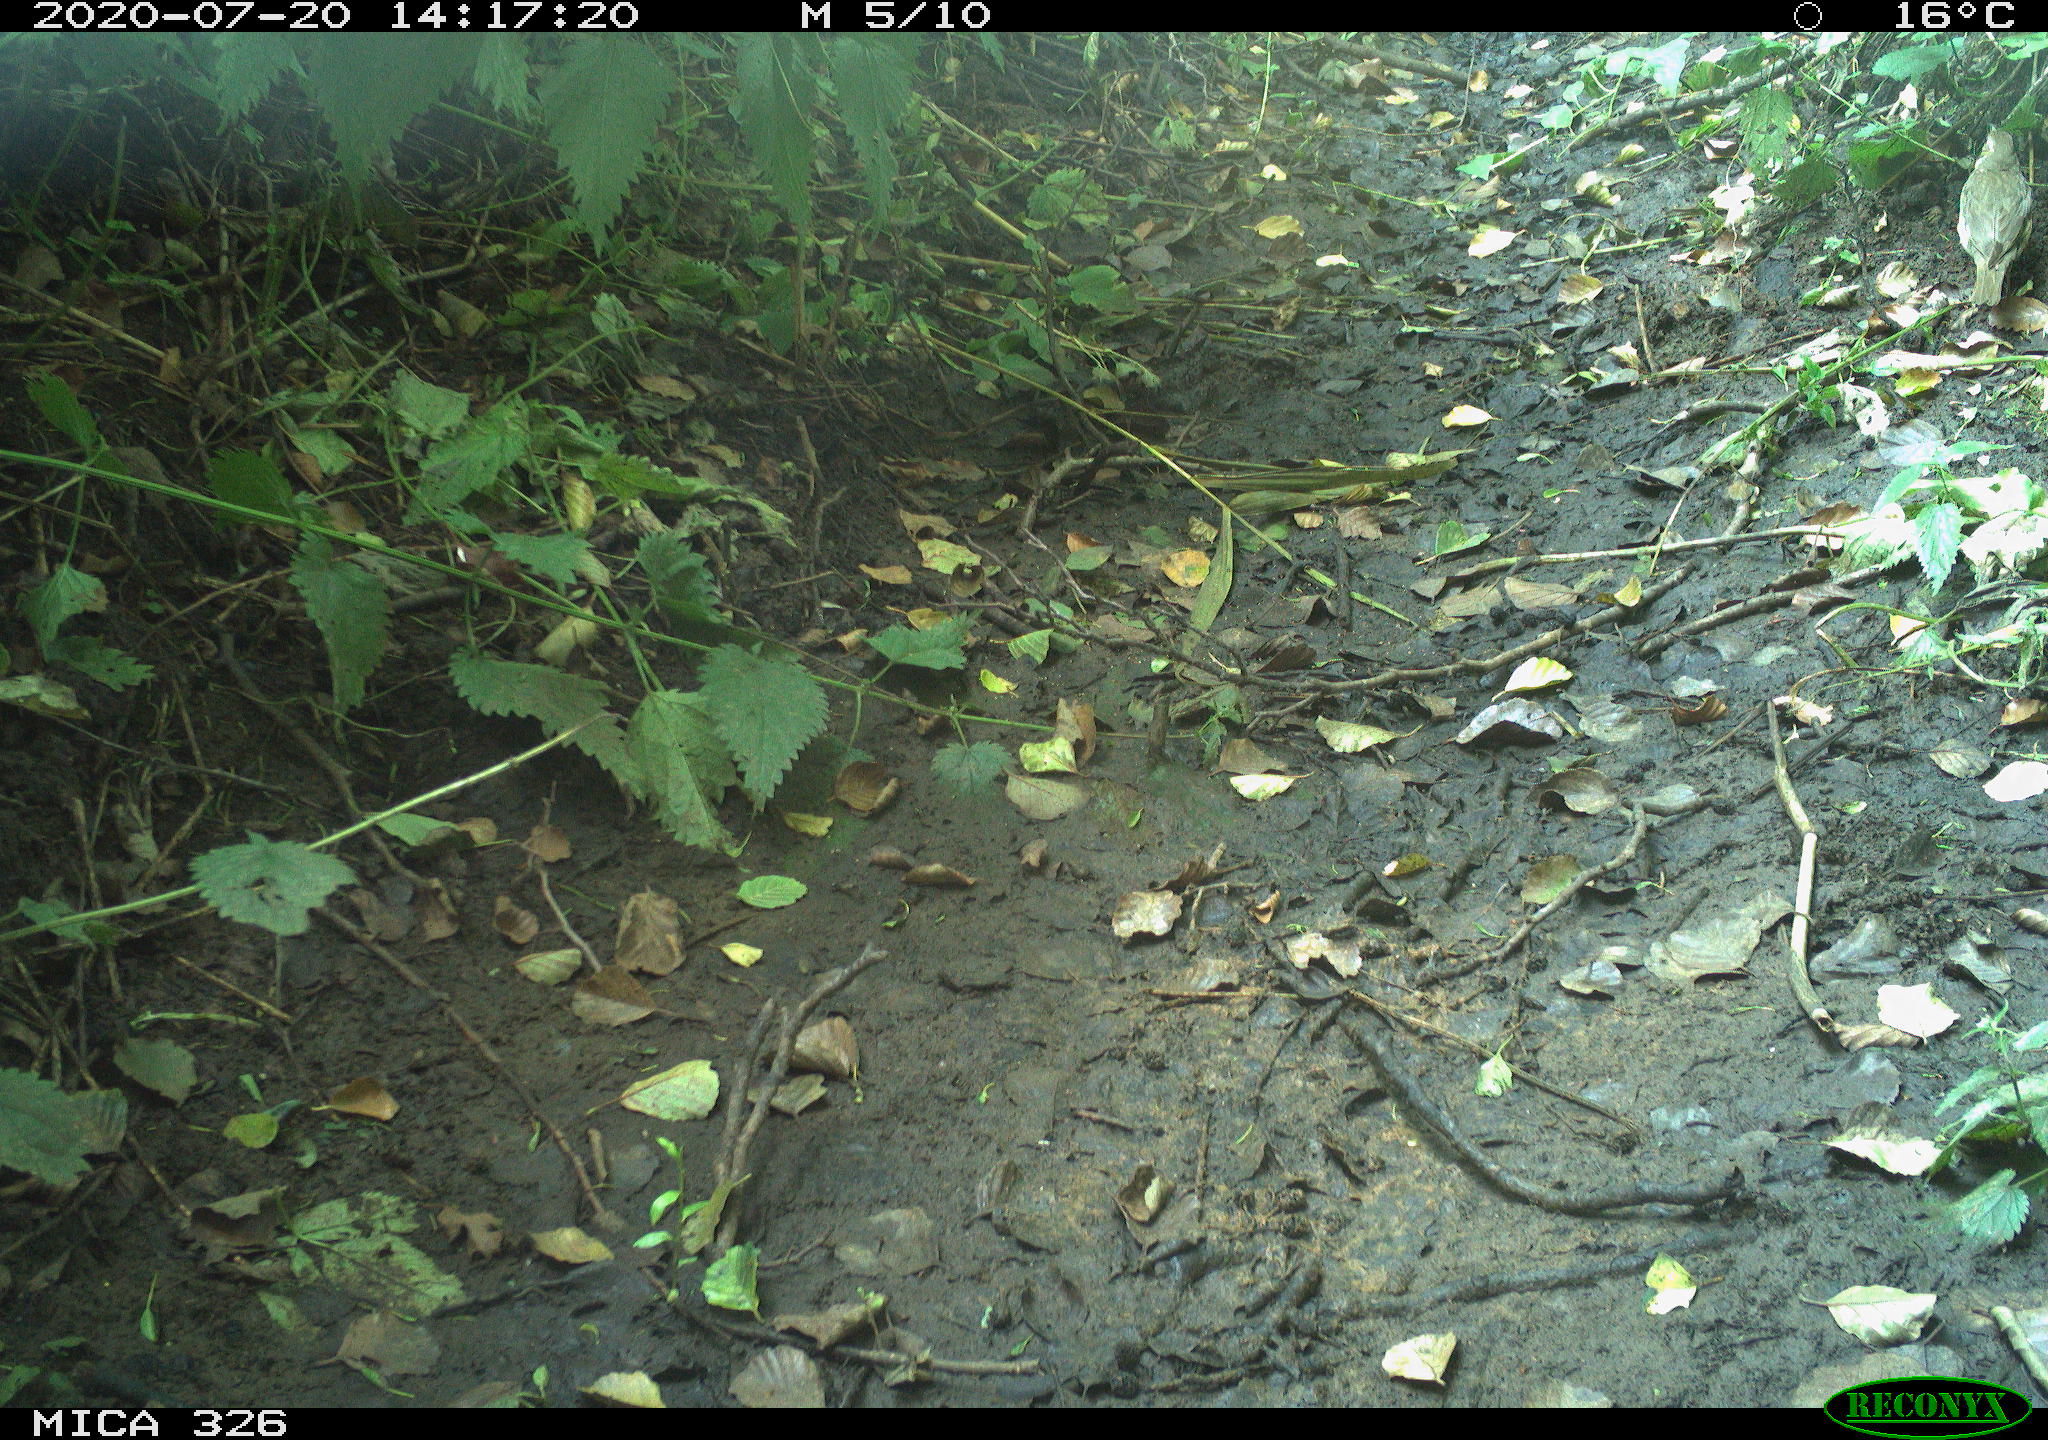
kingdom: Animalia
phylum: Chordata
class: Aves
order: Passeriformes
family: Turdidae
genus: Turdus
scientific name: Turdus philomelos
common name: Song thrush
